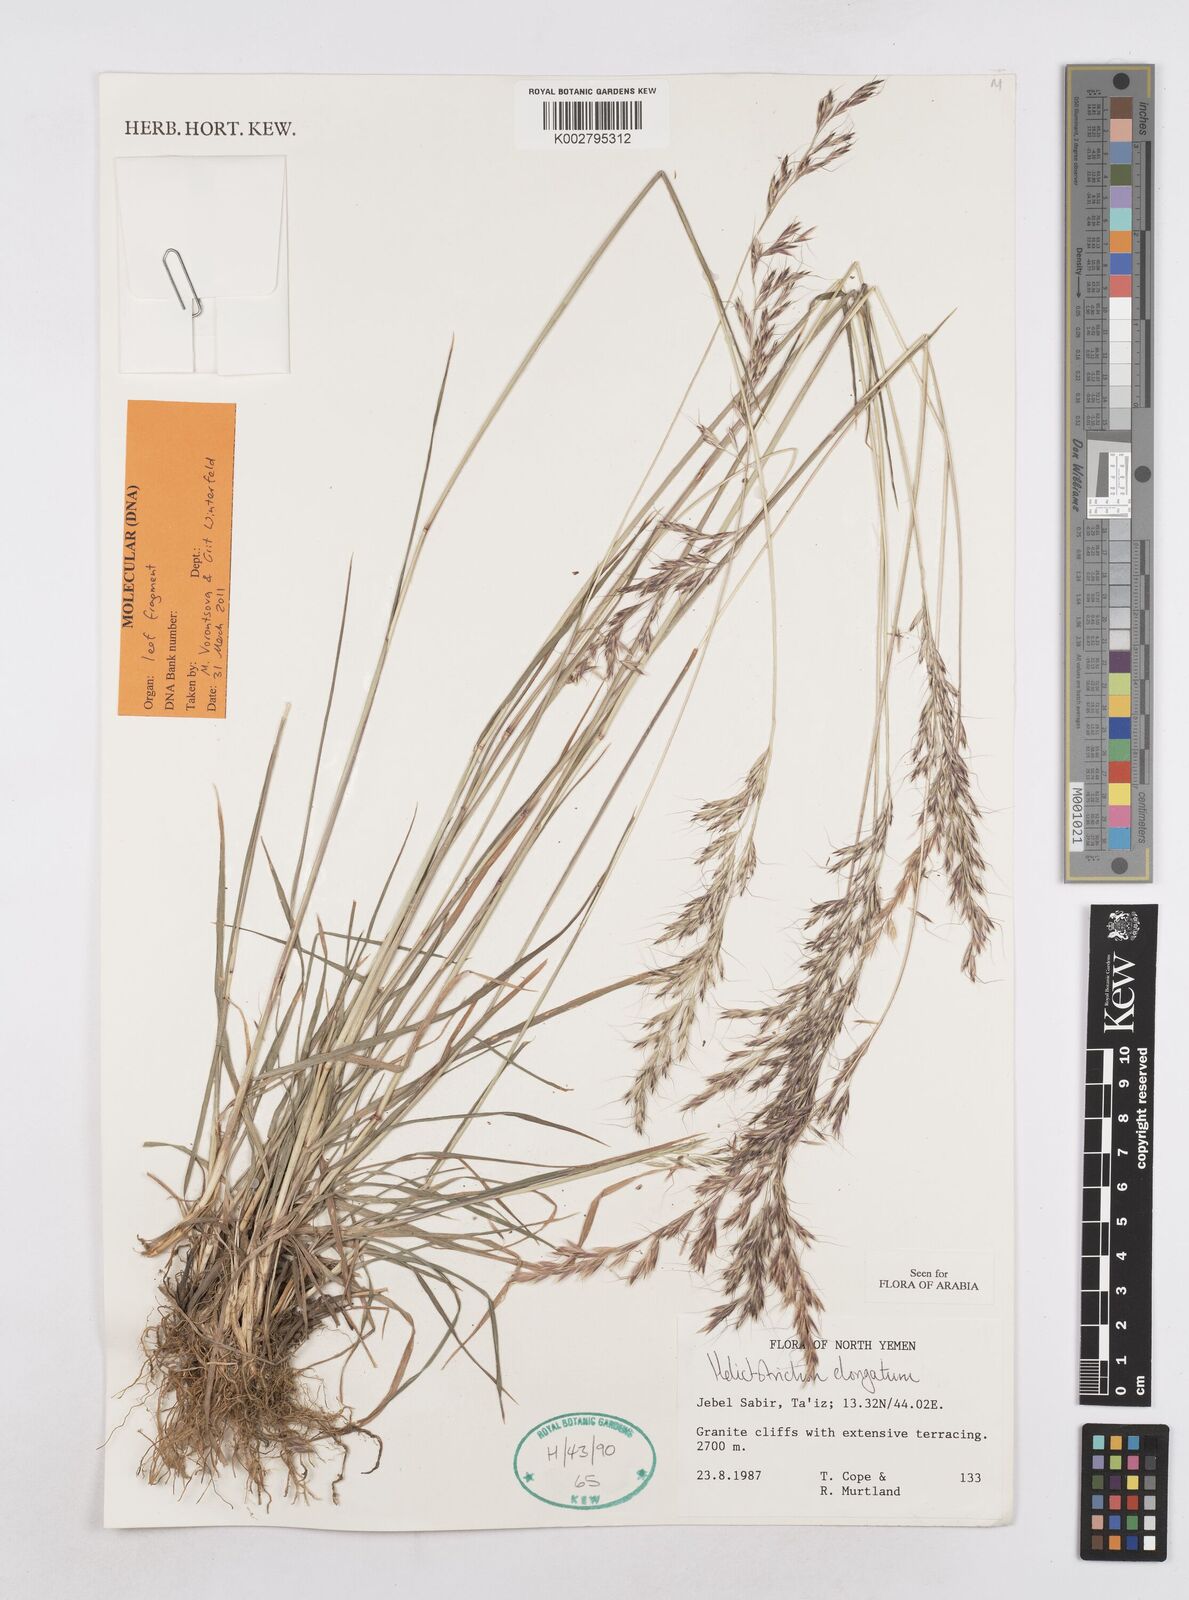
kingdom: Plantae
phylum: Tracheophyta
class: Liliopsida
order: Poales
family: Poaceae
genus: Trisetopsis
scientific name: Trisetopsis elongata
